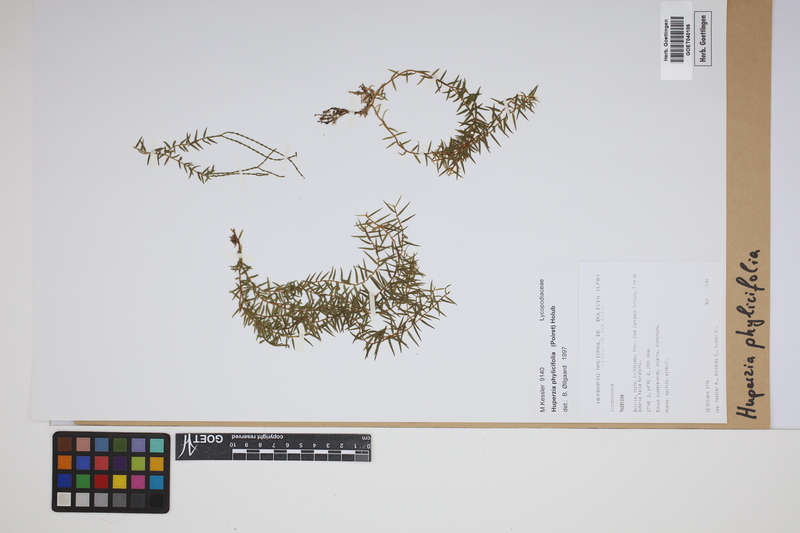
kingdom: Plantae
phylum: Tracheophyta
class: Lycopodiopsida
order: Lycopodiales
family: Lycopodiaceae
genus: Phlegmariurus
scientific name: Phlegmariurus phylicifolius
